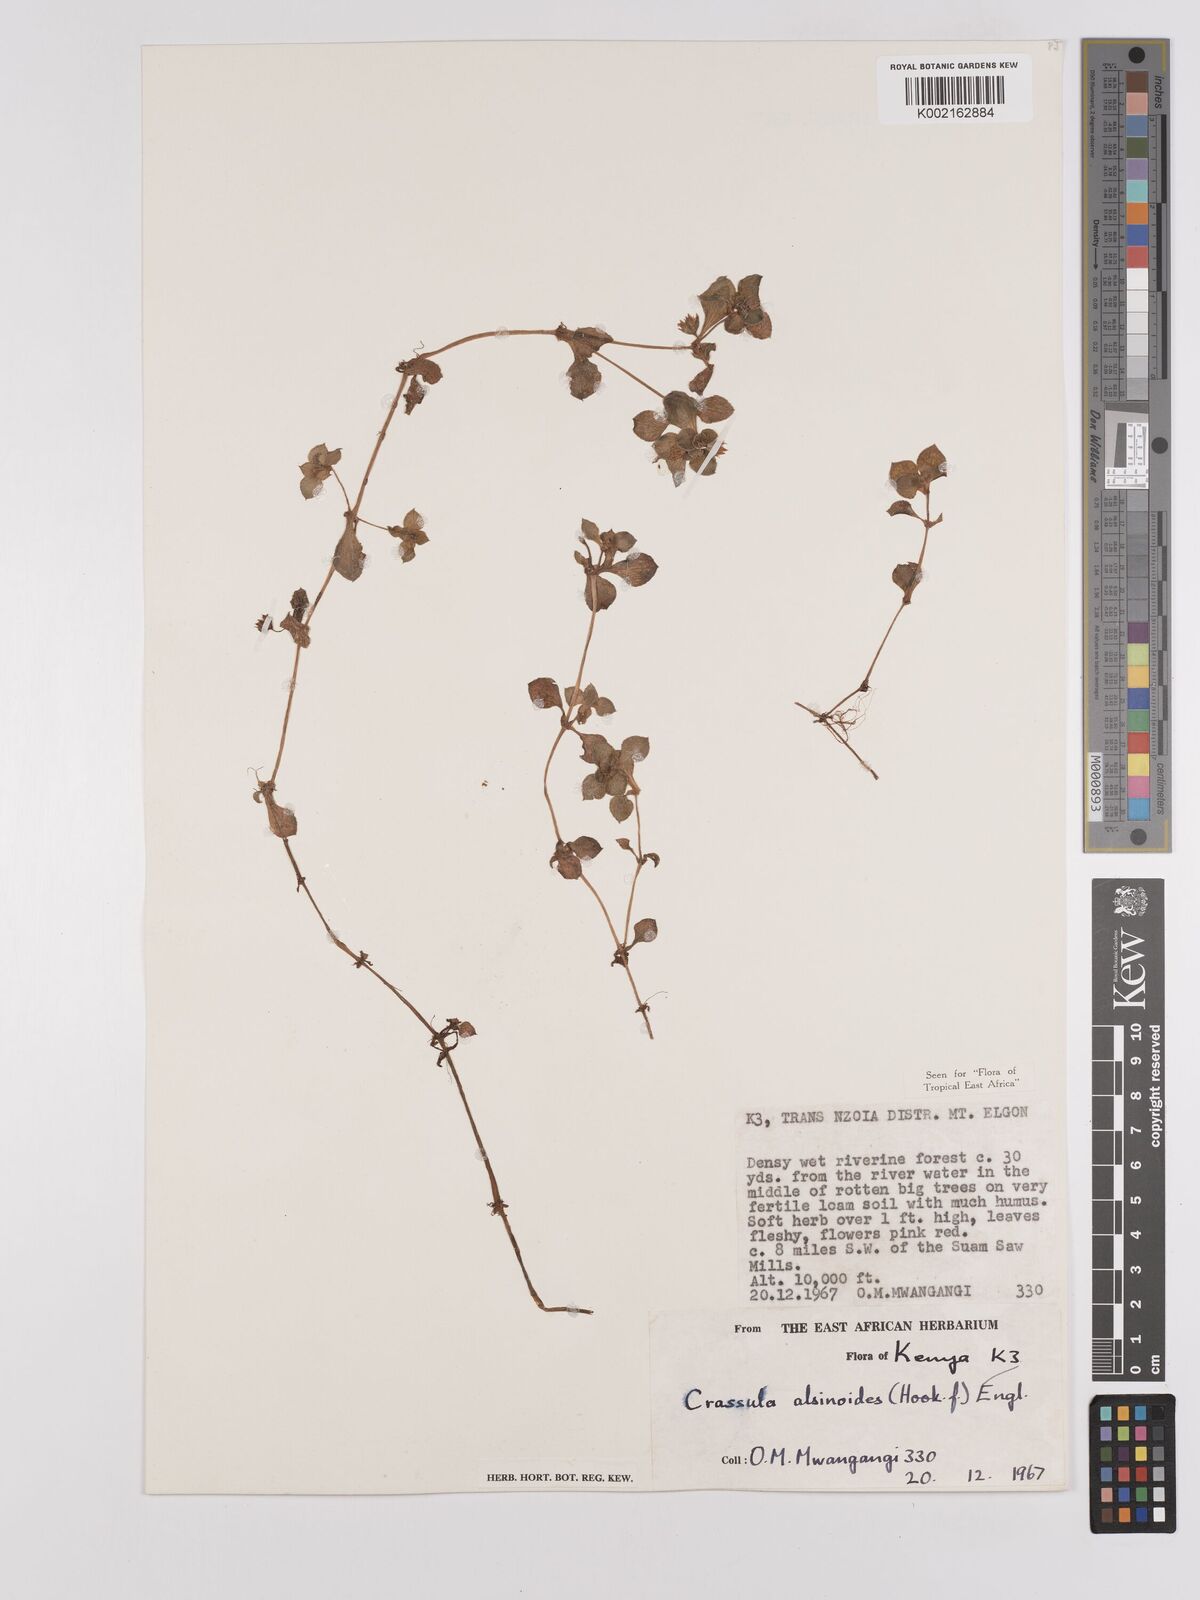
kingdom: Plantae
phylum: Tracheophyta
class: Magnoliopsida
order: Saxifragales
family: Crassulaceae
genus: Crassula
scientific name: Crassula alsinoides
